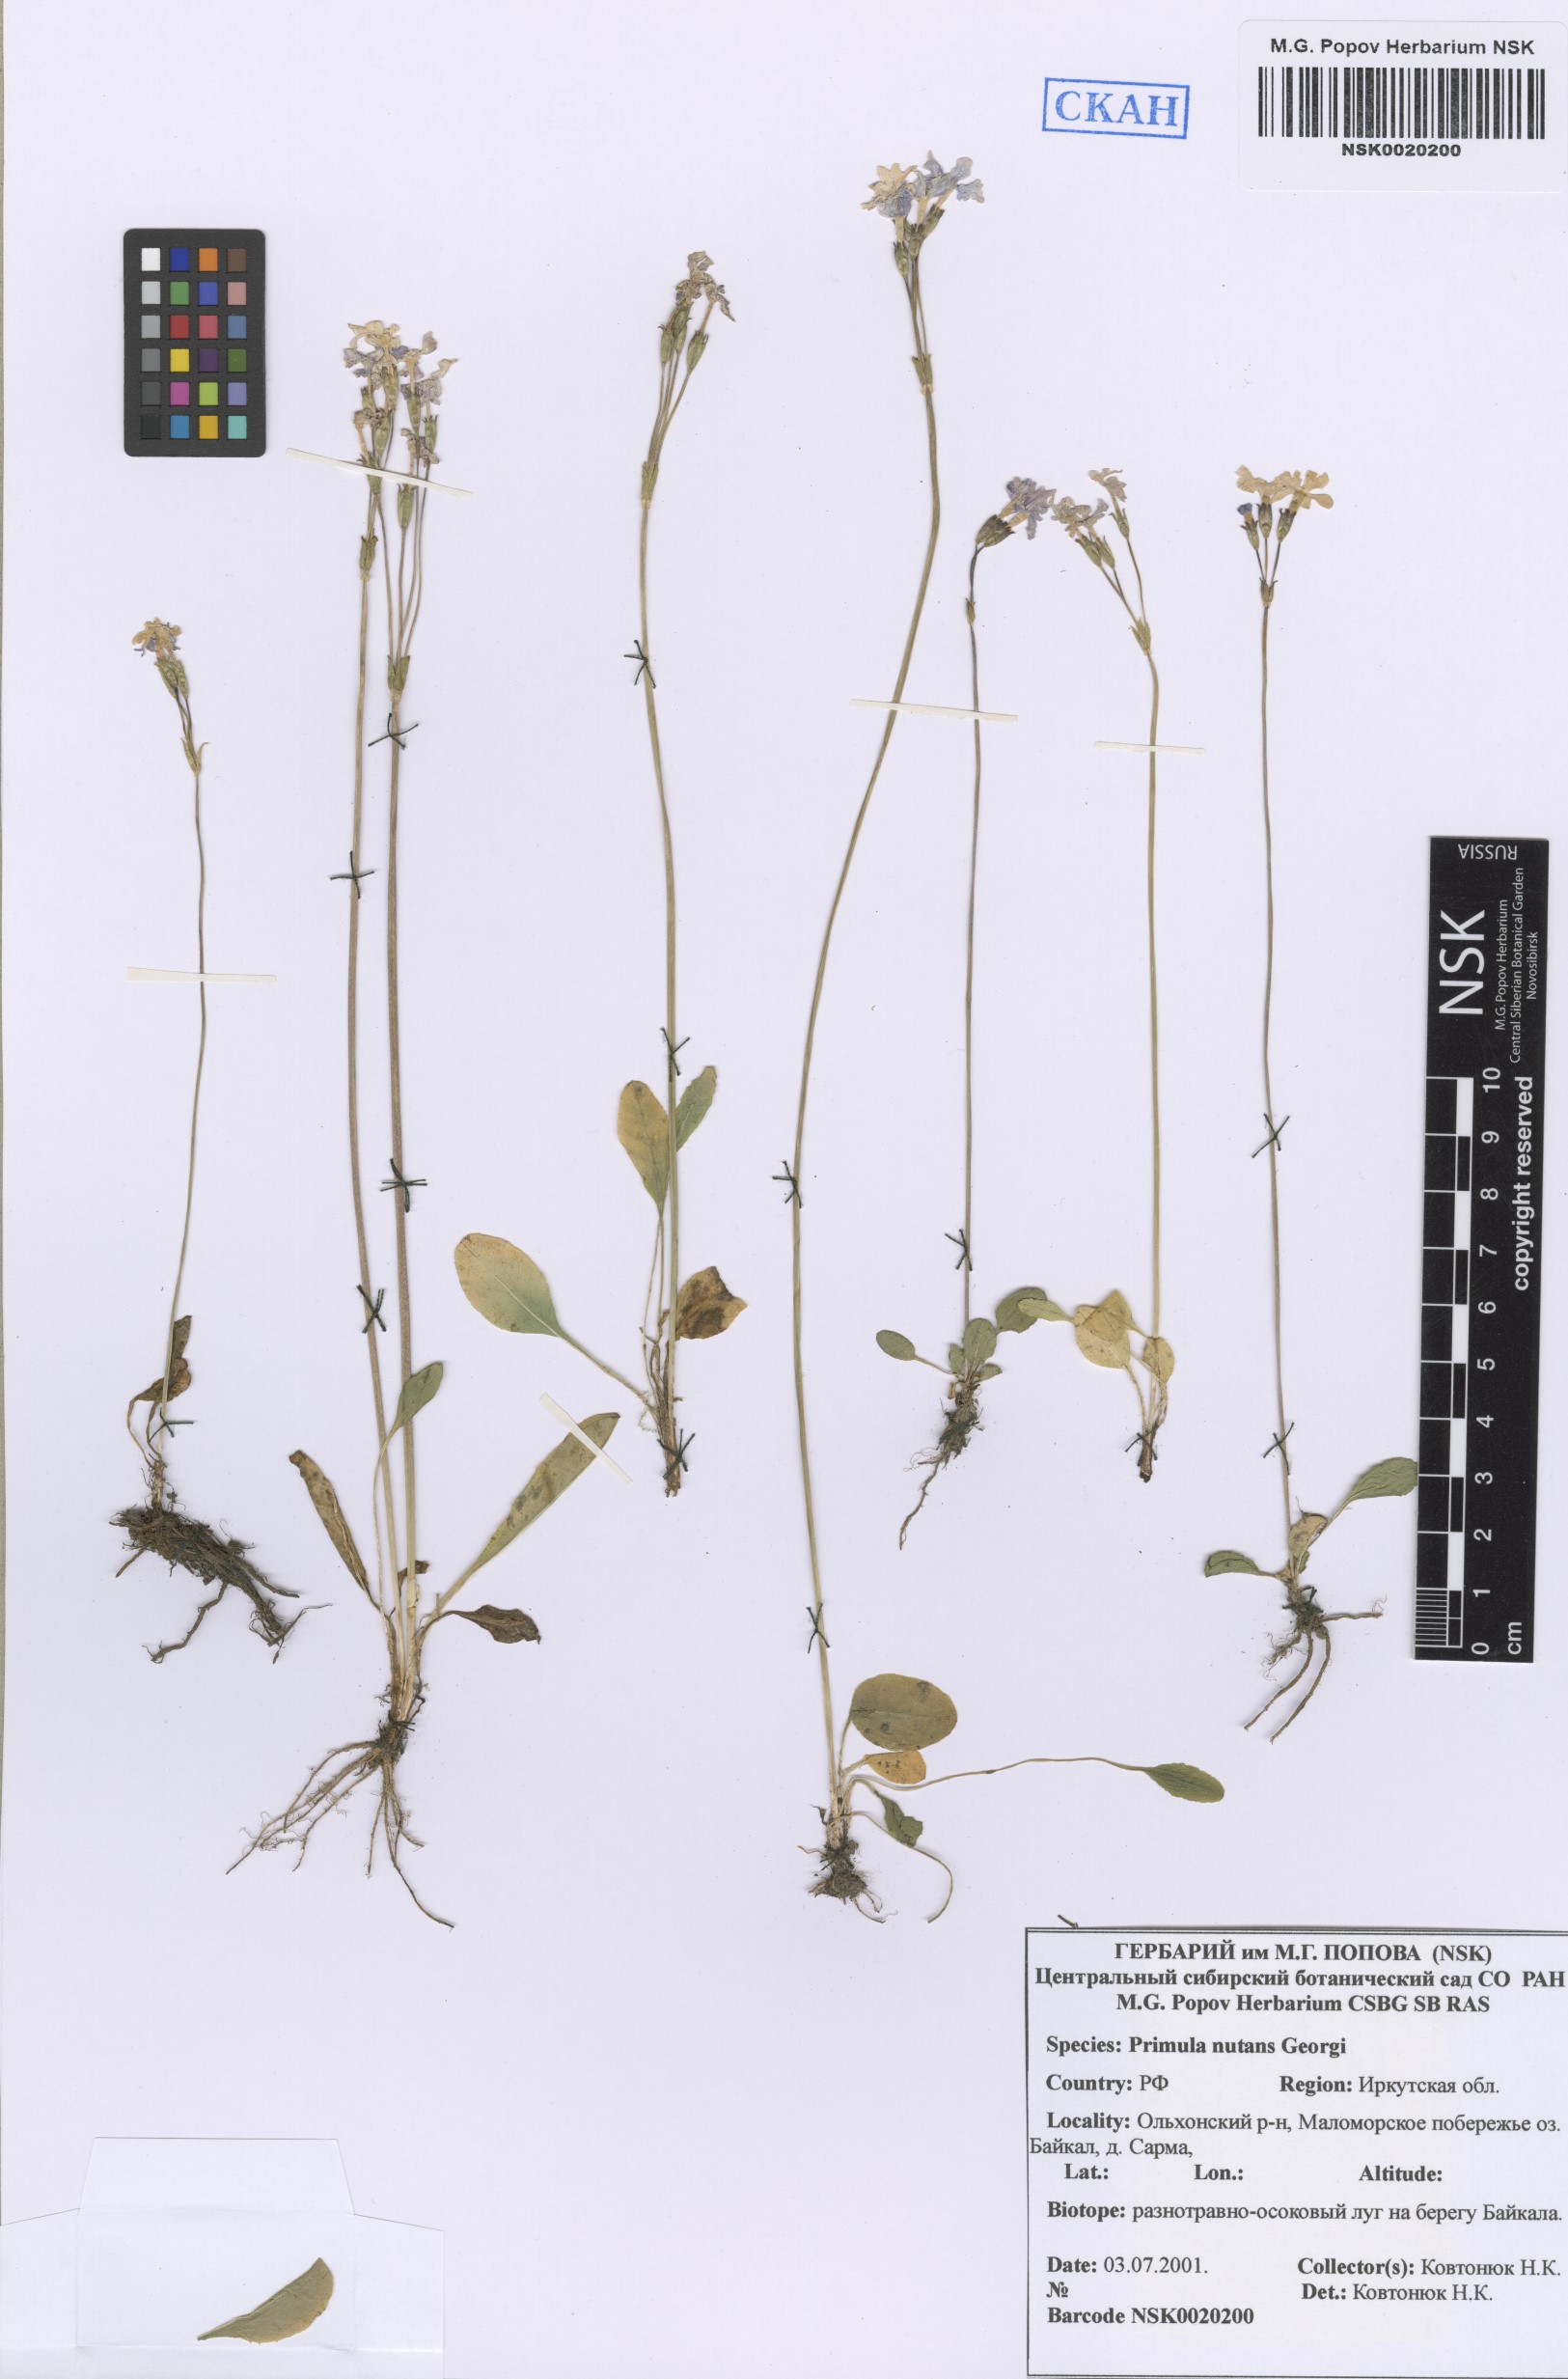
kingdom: Plantae
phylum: Tracheophyta
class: Magnoliopsida
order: Ericales
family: Primulaceae
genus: Primula
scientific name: Primula nutans
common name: Siberian primrose
